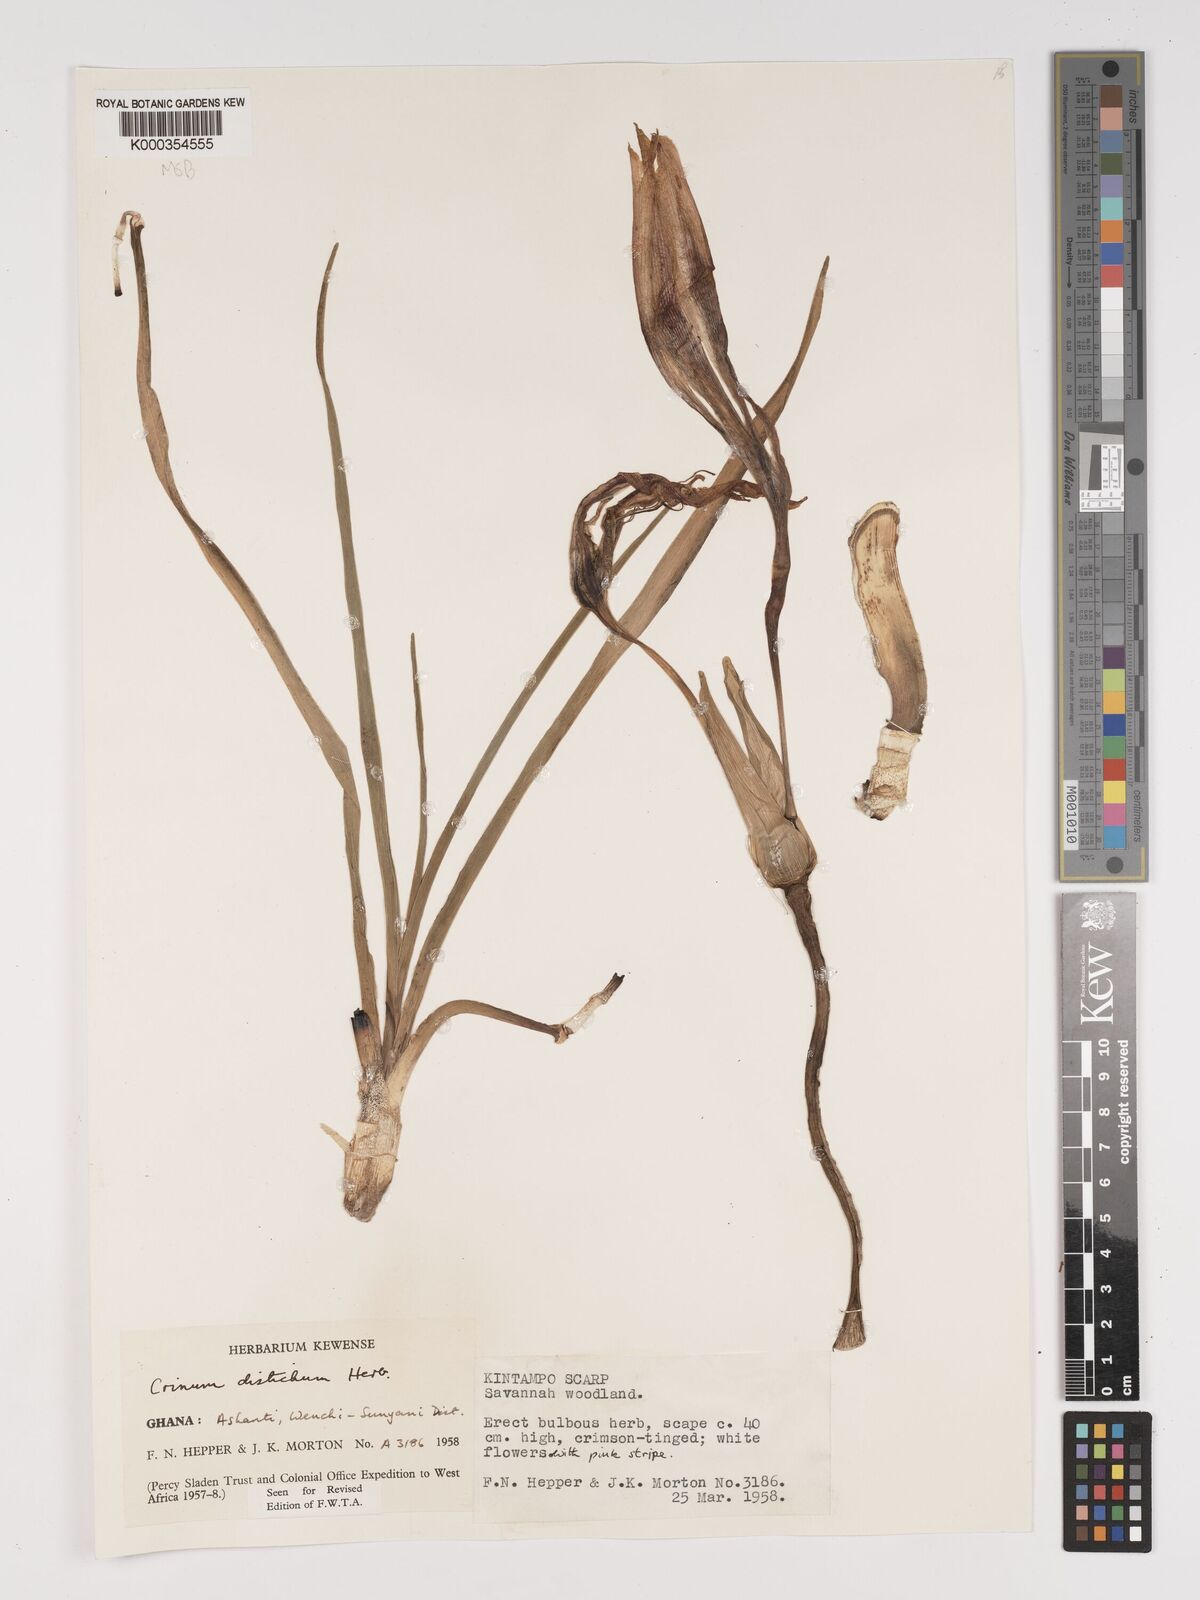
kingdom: Plantae
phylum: Tracheophyta
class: Liliopsida
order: Asparagales
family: Amaryllidaceae
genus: Crinum
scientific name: Crinum zeylanicum
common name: Ceylon swamplily
